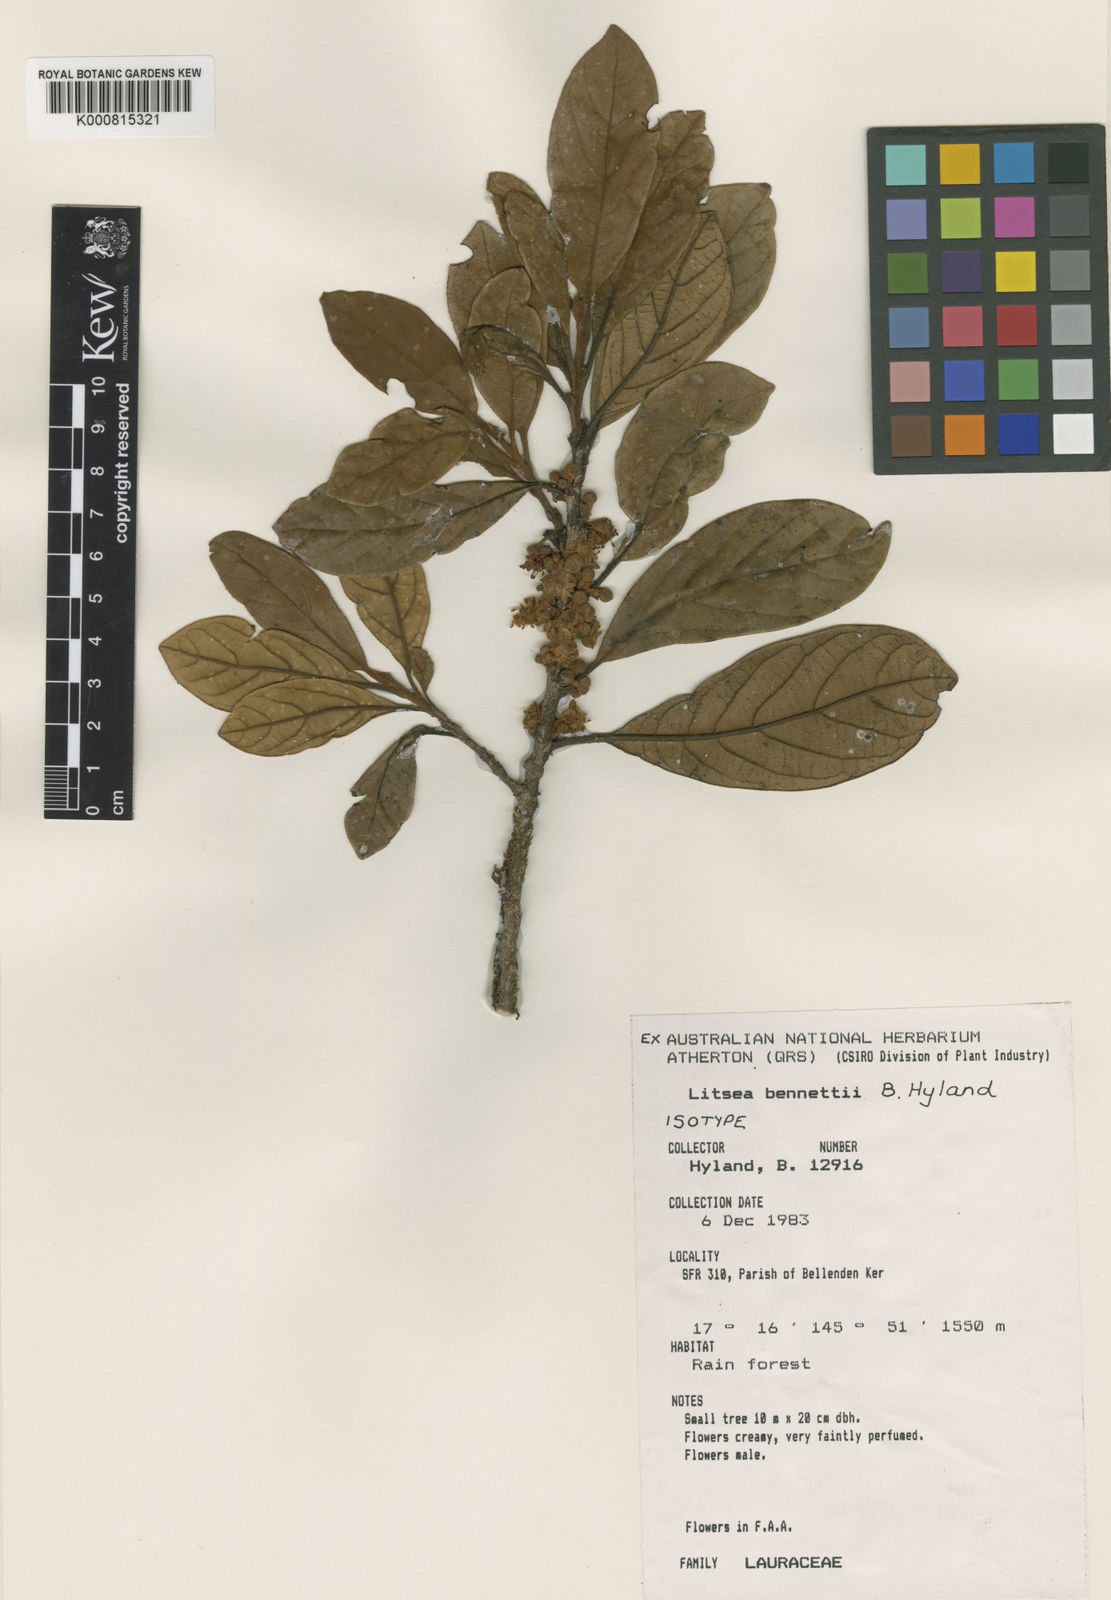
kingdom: Plantae
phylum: Tracheophyta
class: Magnoliopsida
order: Laurales
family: Lauraceae
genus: Litsea
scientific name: Litsea bennettii
